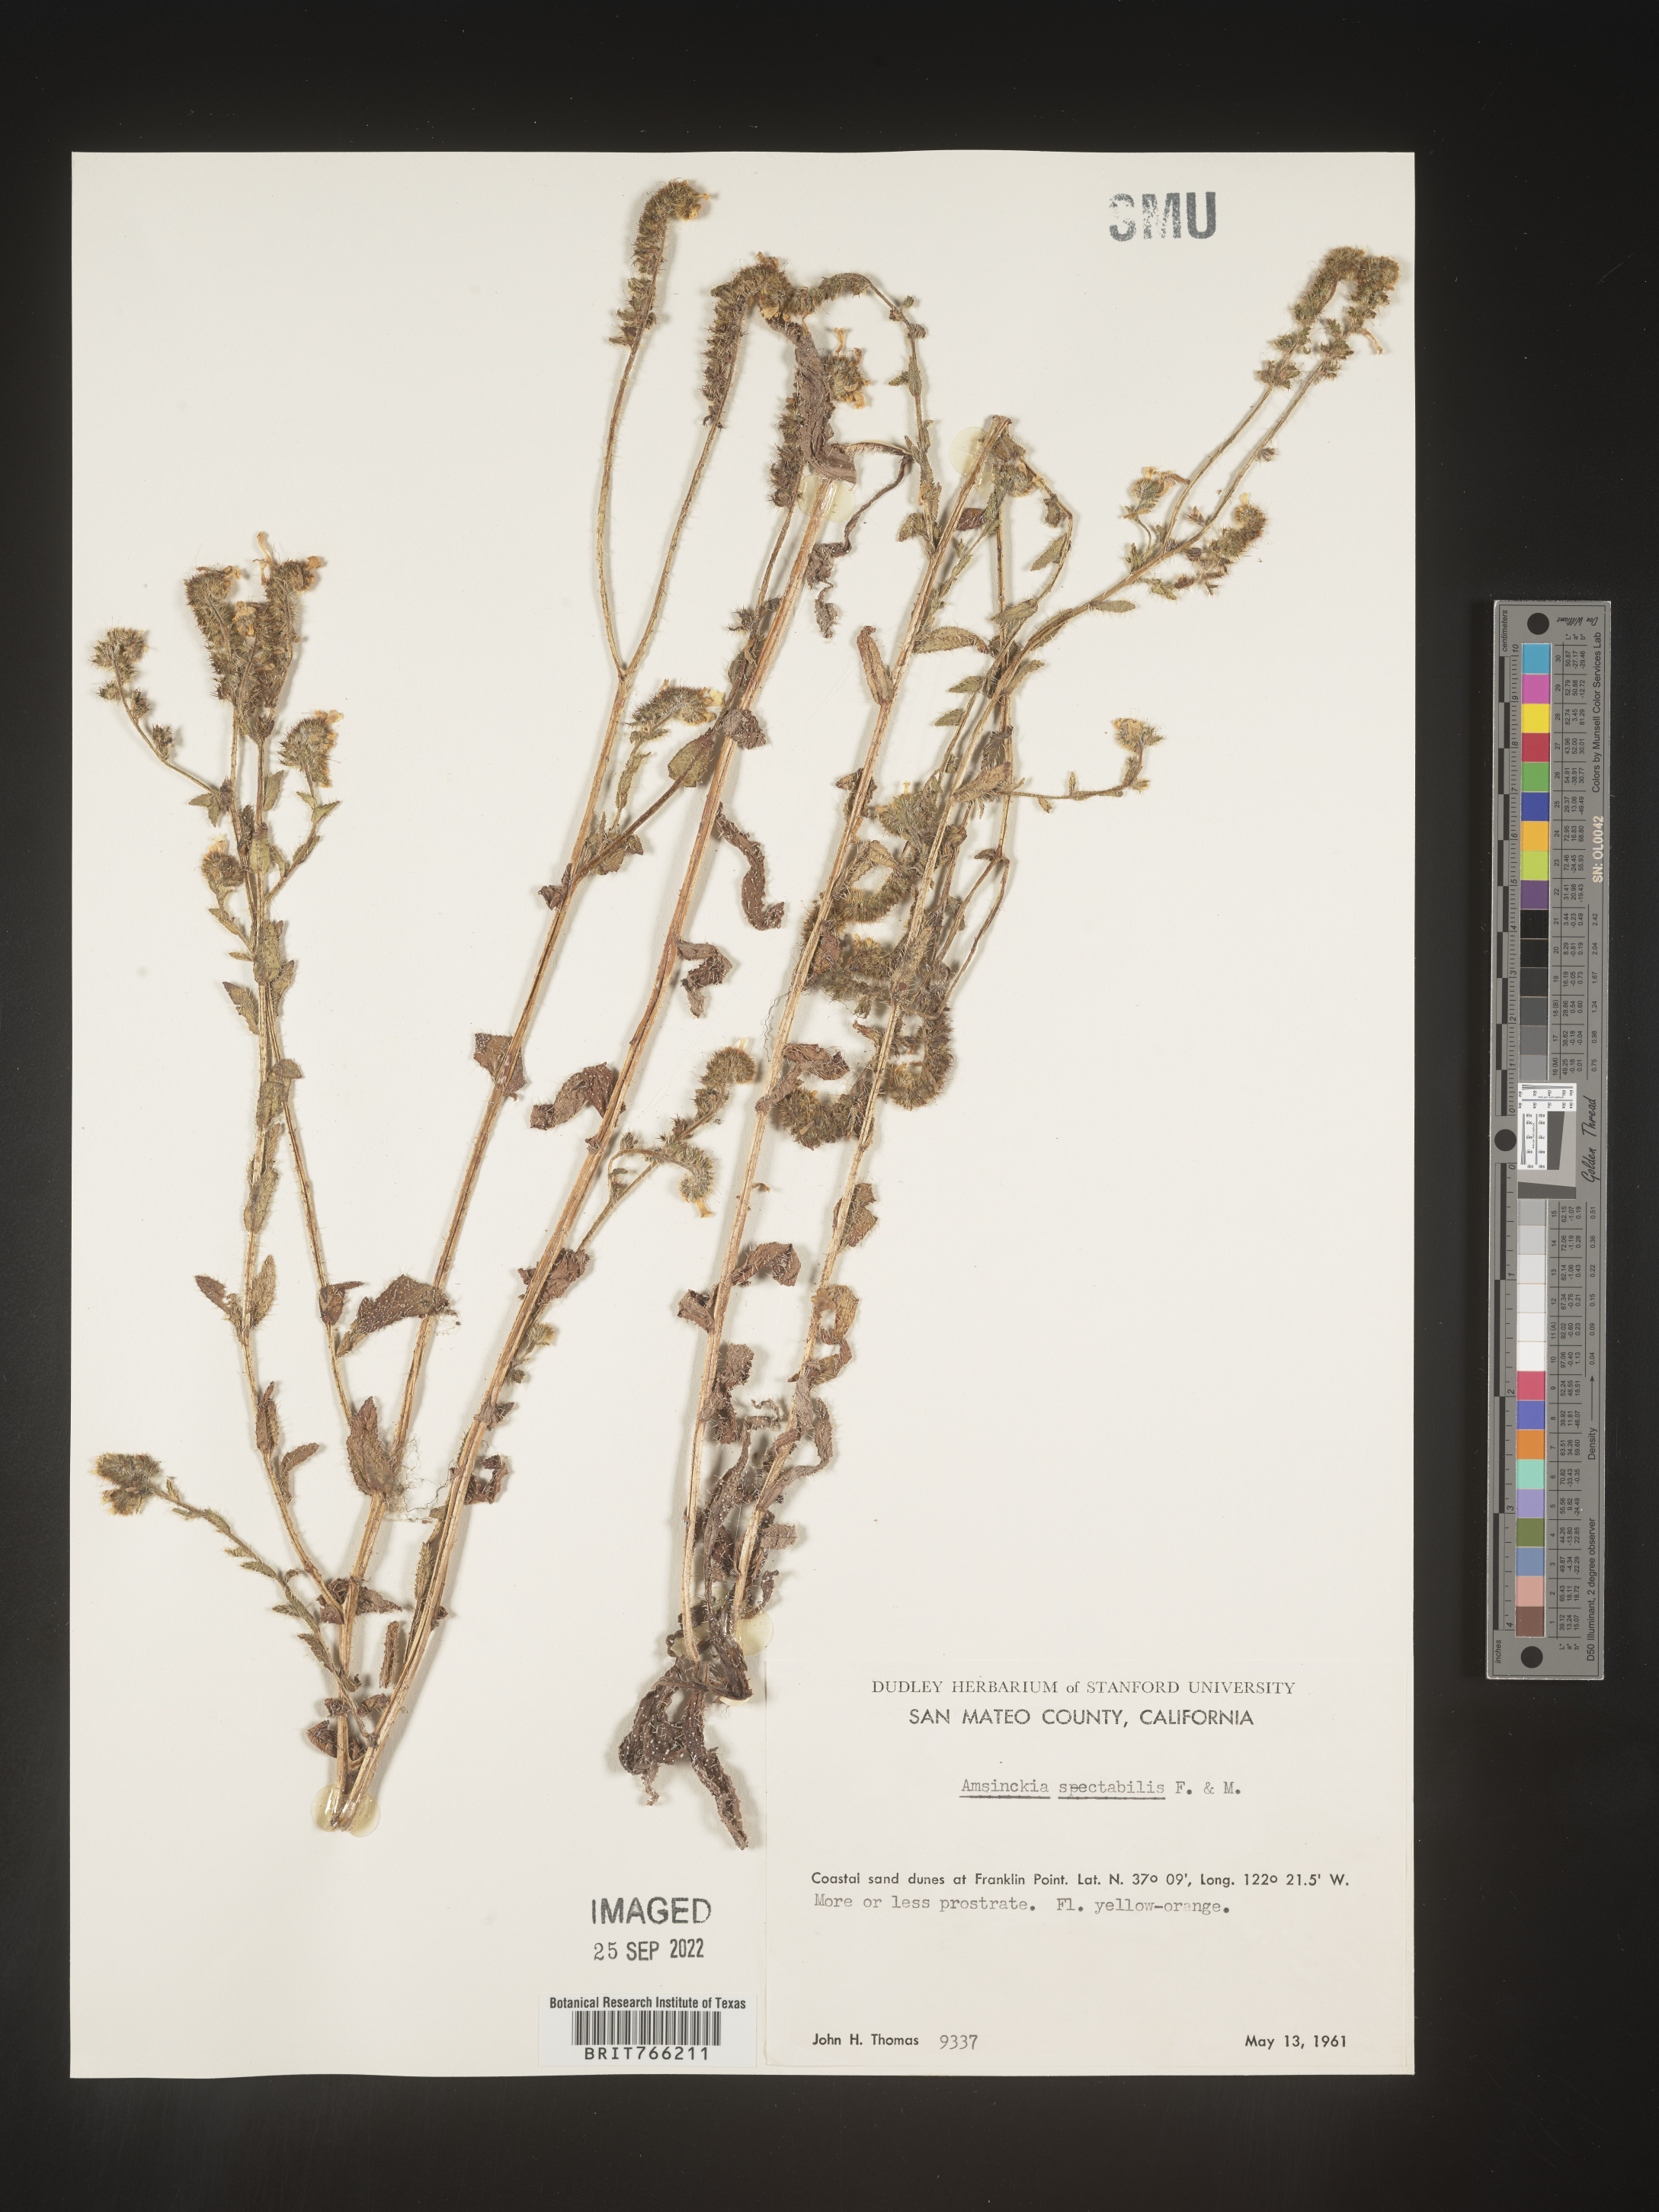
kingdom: Plantae
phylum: Tracheophyta
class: Magnoliopsida
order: Boraginales
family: Boraginaceae
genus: Amsinckia
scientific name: Amsinckia tessellata
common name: Tessellate fiddleneck
